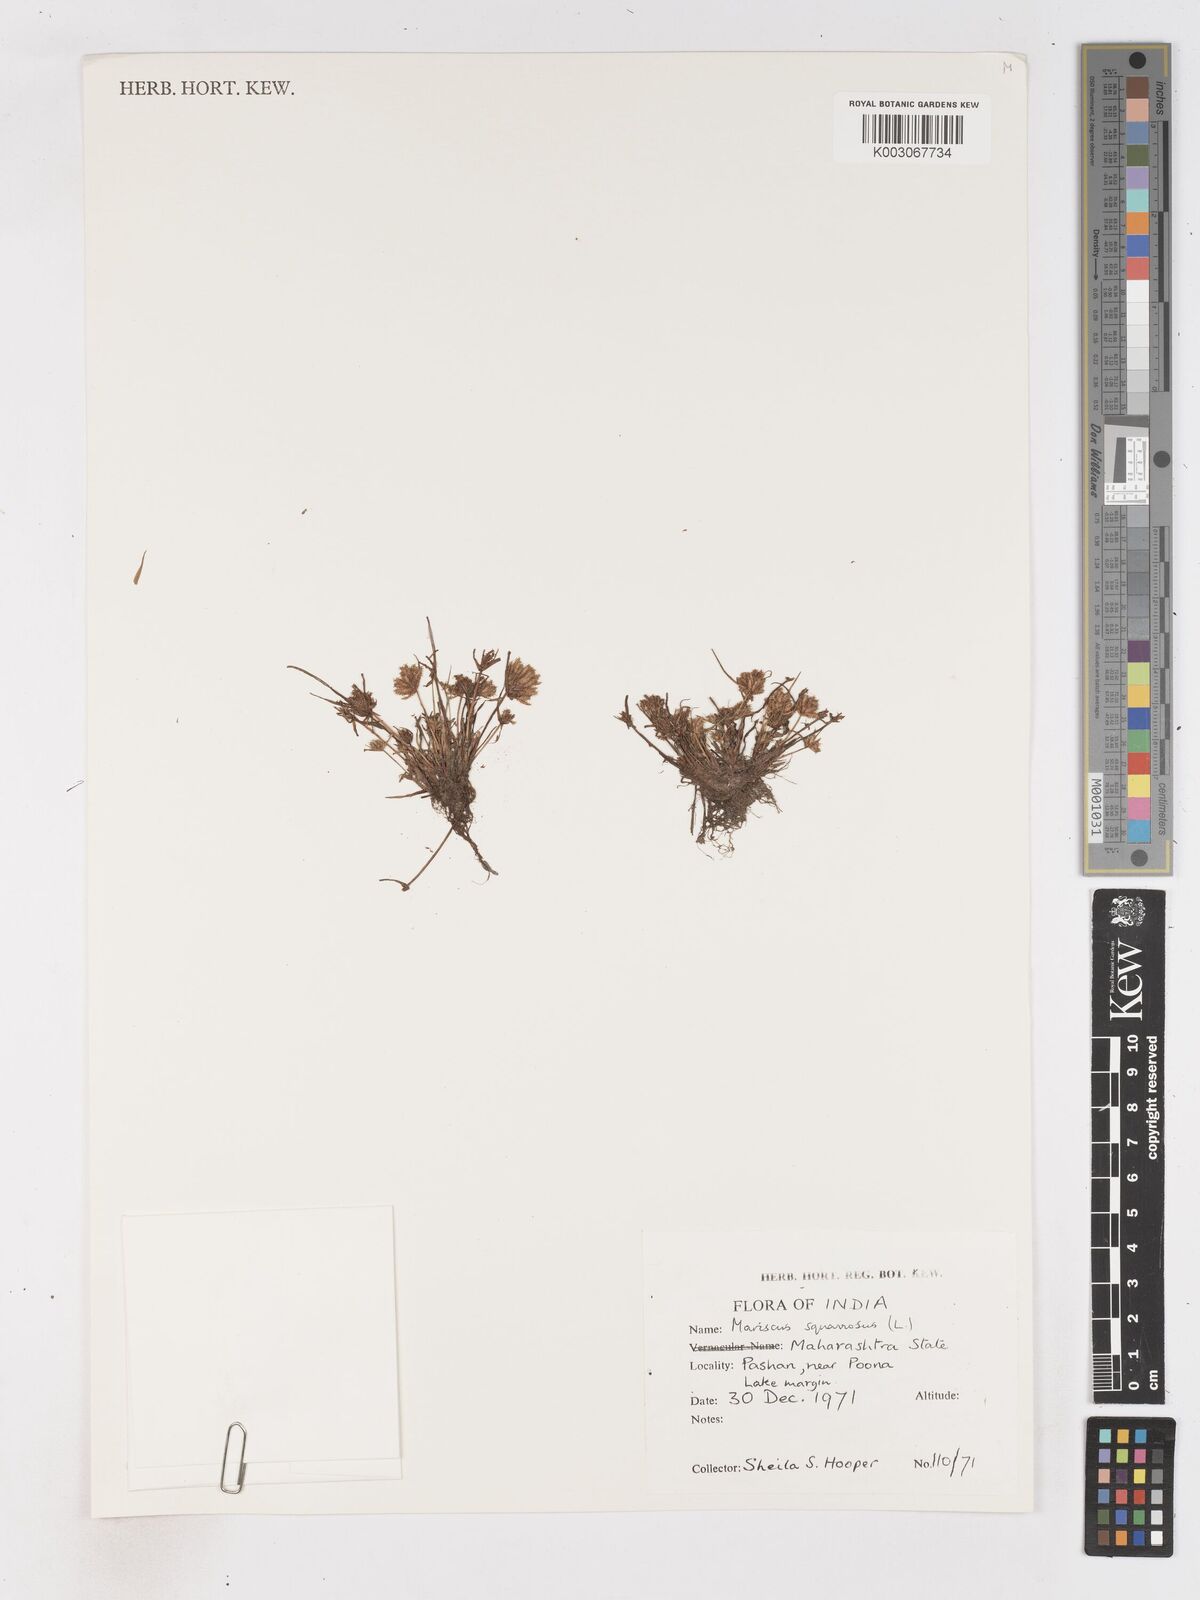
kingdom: Plantae
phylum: Tracheophyta
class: Liliopsida
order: Poales
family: Cyperaceae
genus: Cyperus
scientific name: Cyperus squarrosus
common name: Awned cyperus
